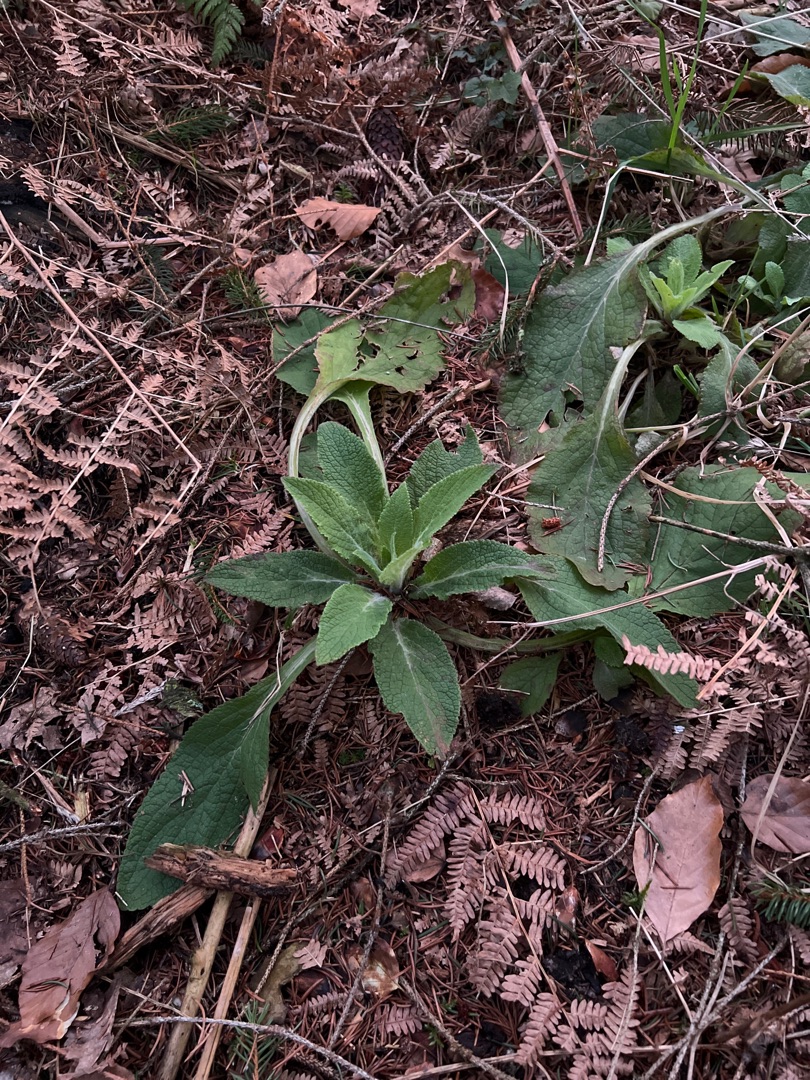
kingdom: Plantae
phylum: Tracheophyta
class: Magnoliopsida
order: Lamiales
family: Plantaginaceae
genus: Digitalis
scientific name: Digitalis purpurea
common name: Almindelig fingerbøl
